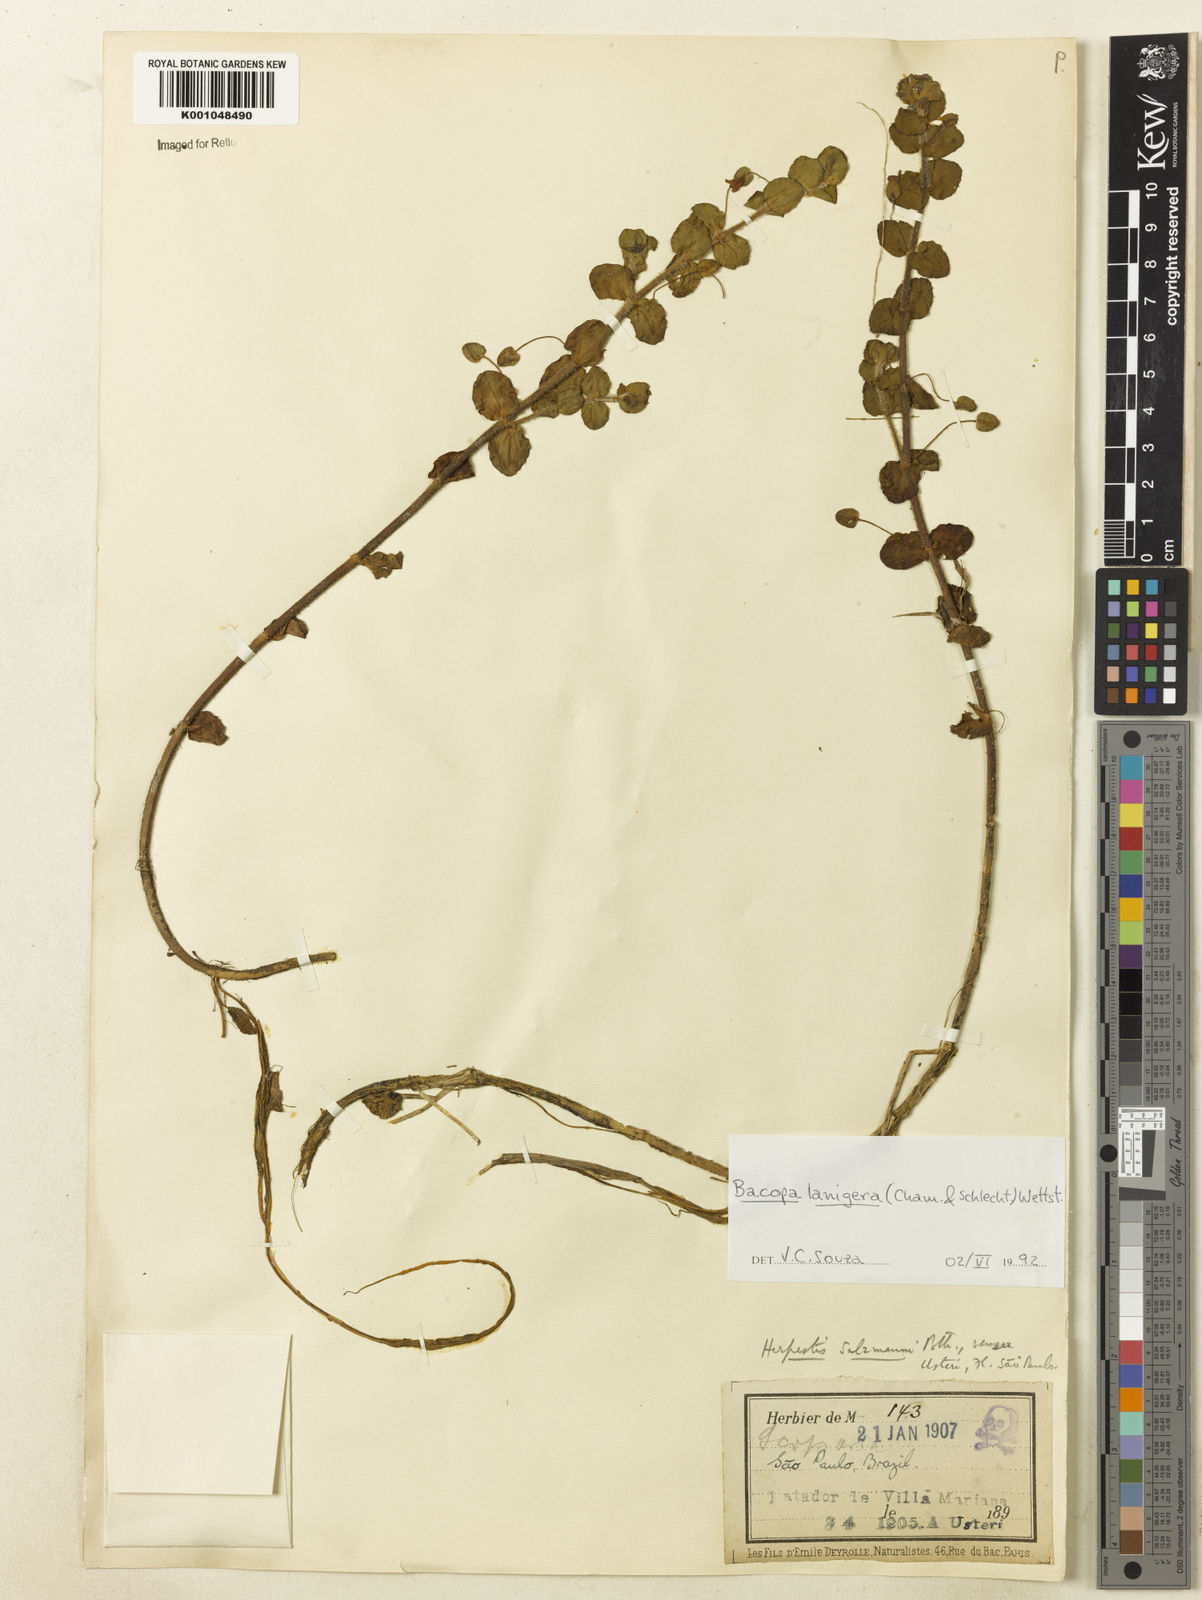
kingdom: Plantae
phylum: Tracheophyta
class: Magnoliopsida
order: Lamiales
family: Plantaginaceae
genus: Bacopa
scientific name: Bacopa lanigera
